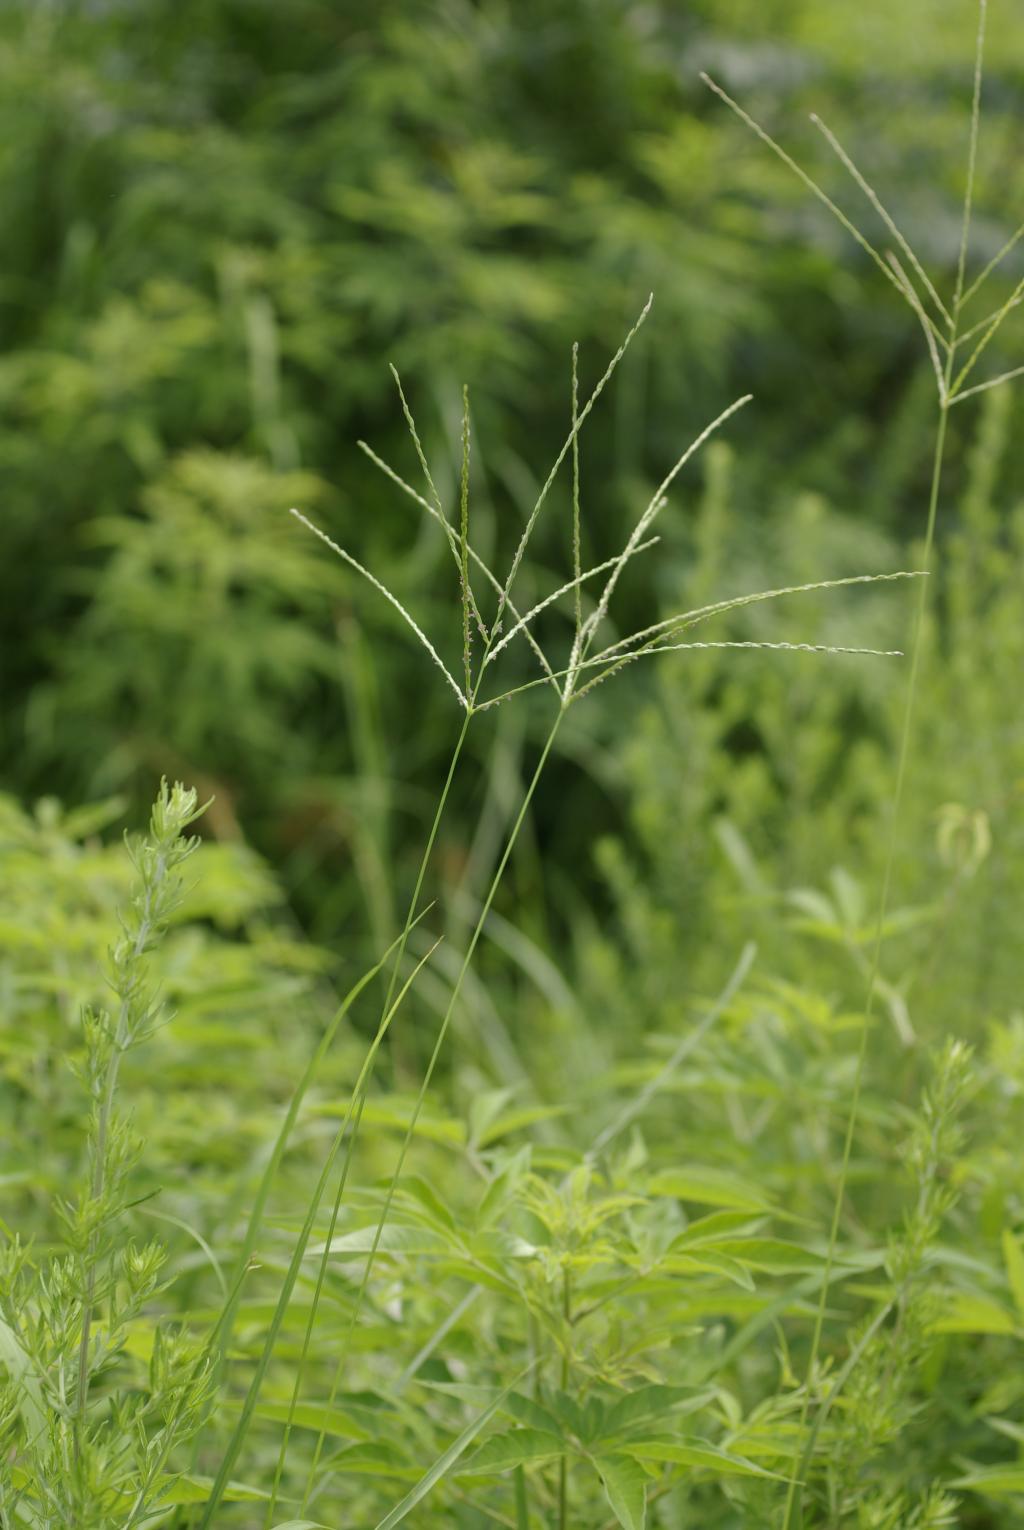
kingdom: Plantae
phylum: Tracheophyta
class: Liliopsida
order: Poales
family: Poaceae
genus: Digitaria
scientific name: Digitaria setigera
